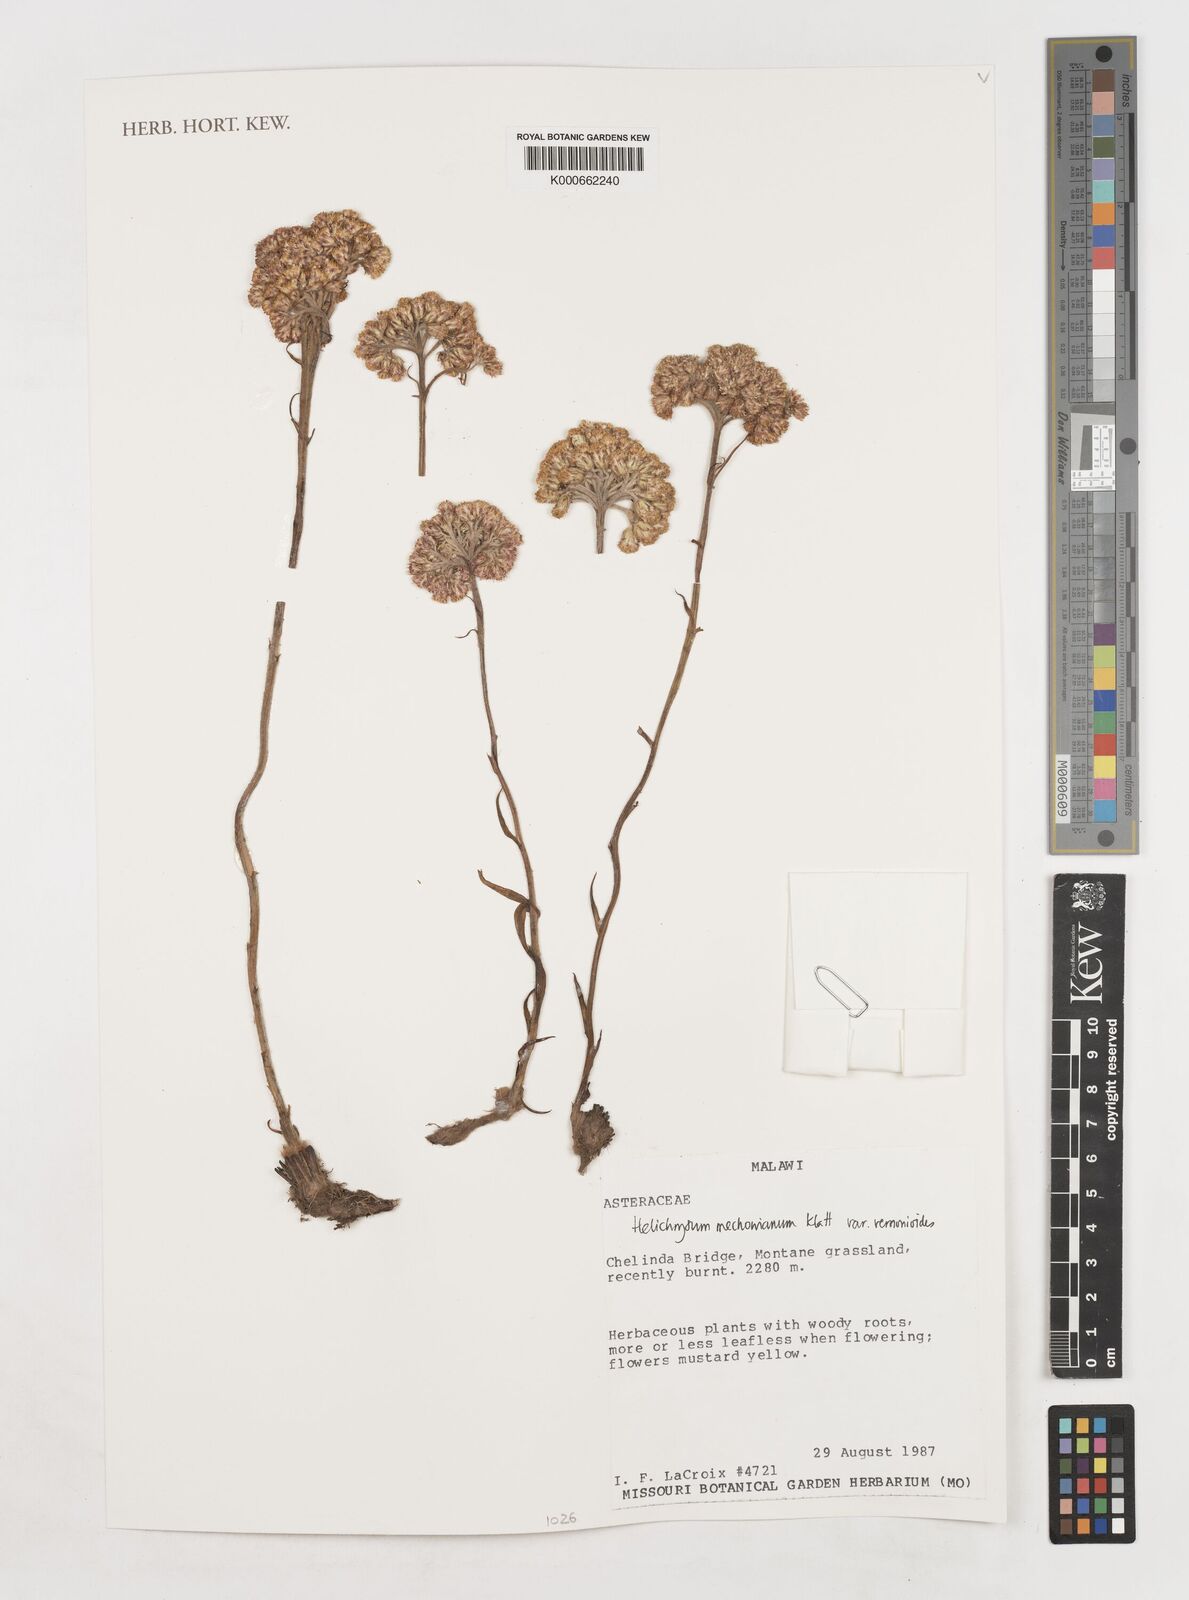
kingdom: Plantae
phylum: Tracheophyta
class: Magnoliopsida
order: Asterales
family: Asteraceae
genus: Helichrysum
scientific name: Helichrysum mechowianum
